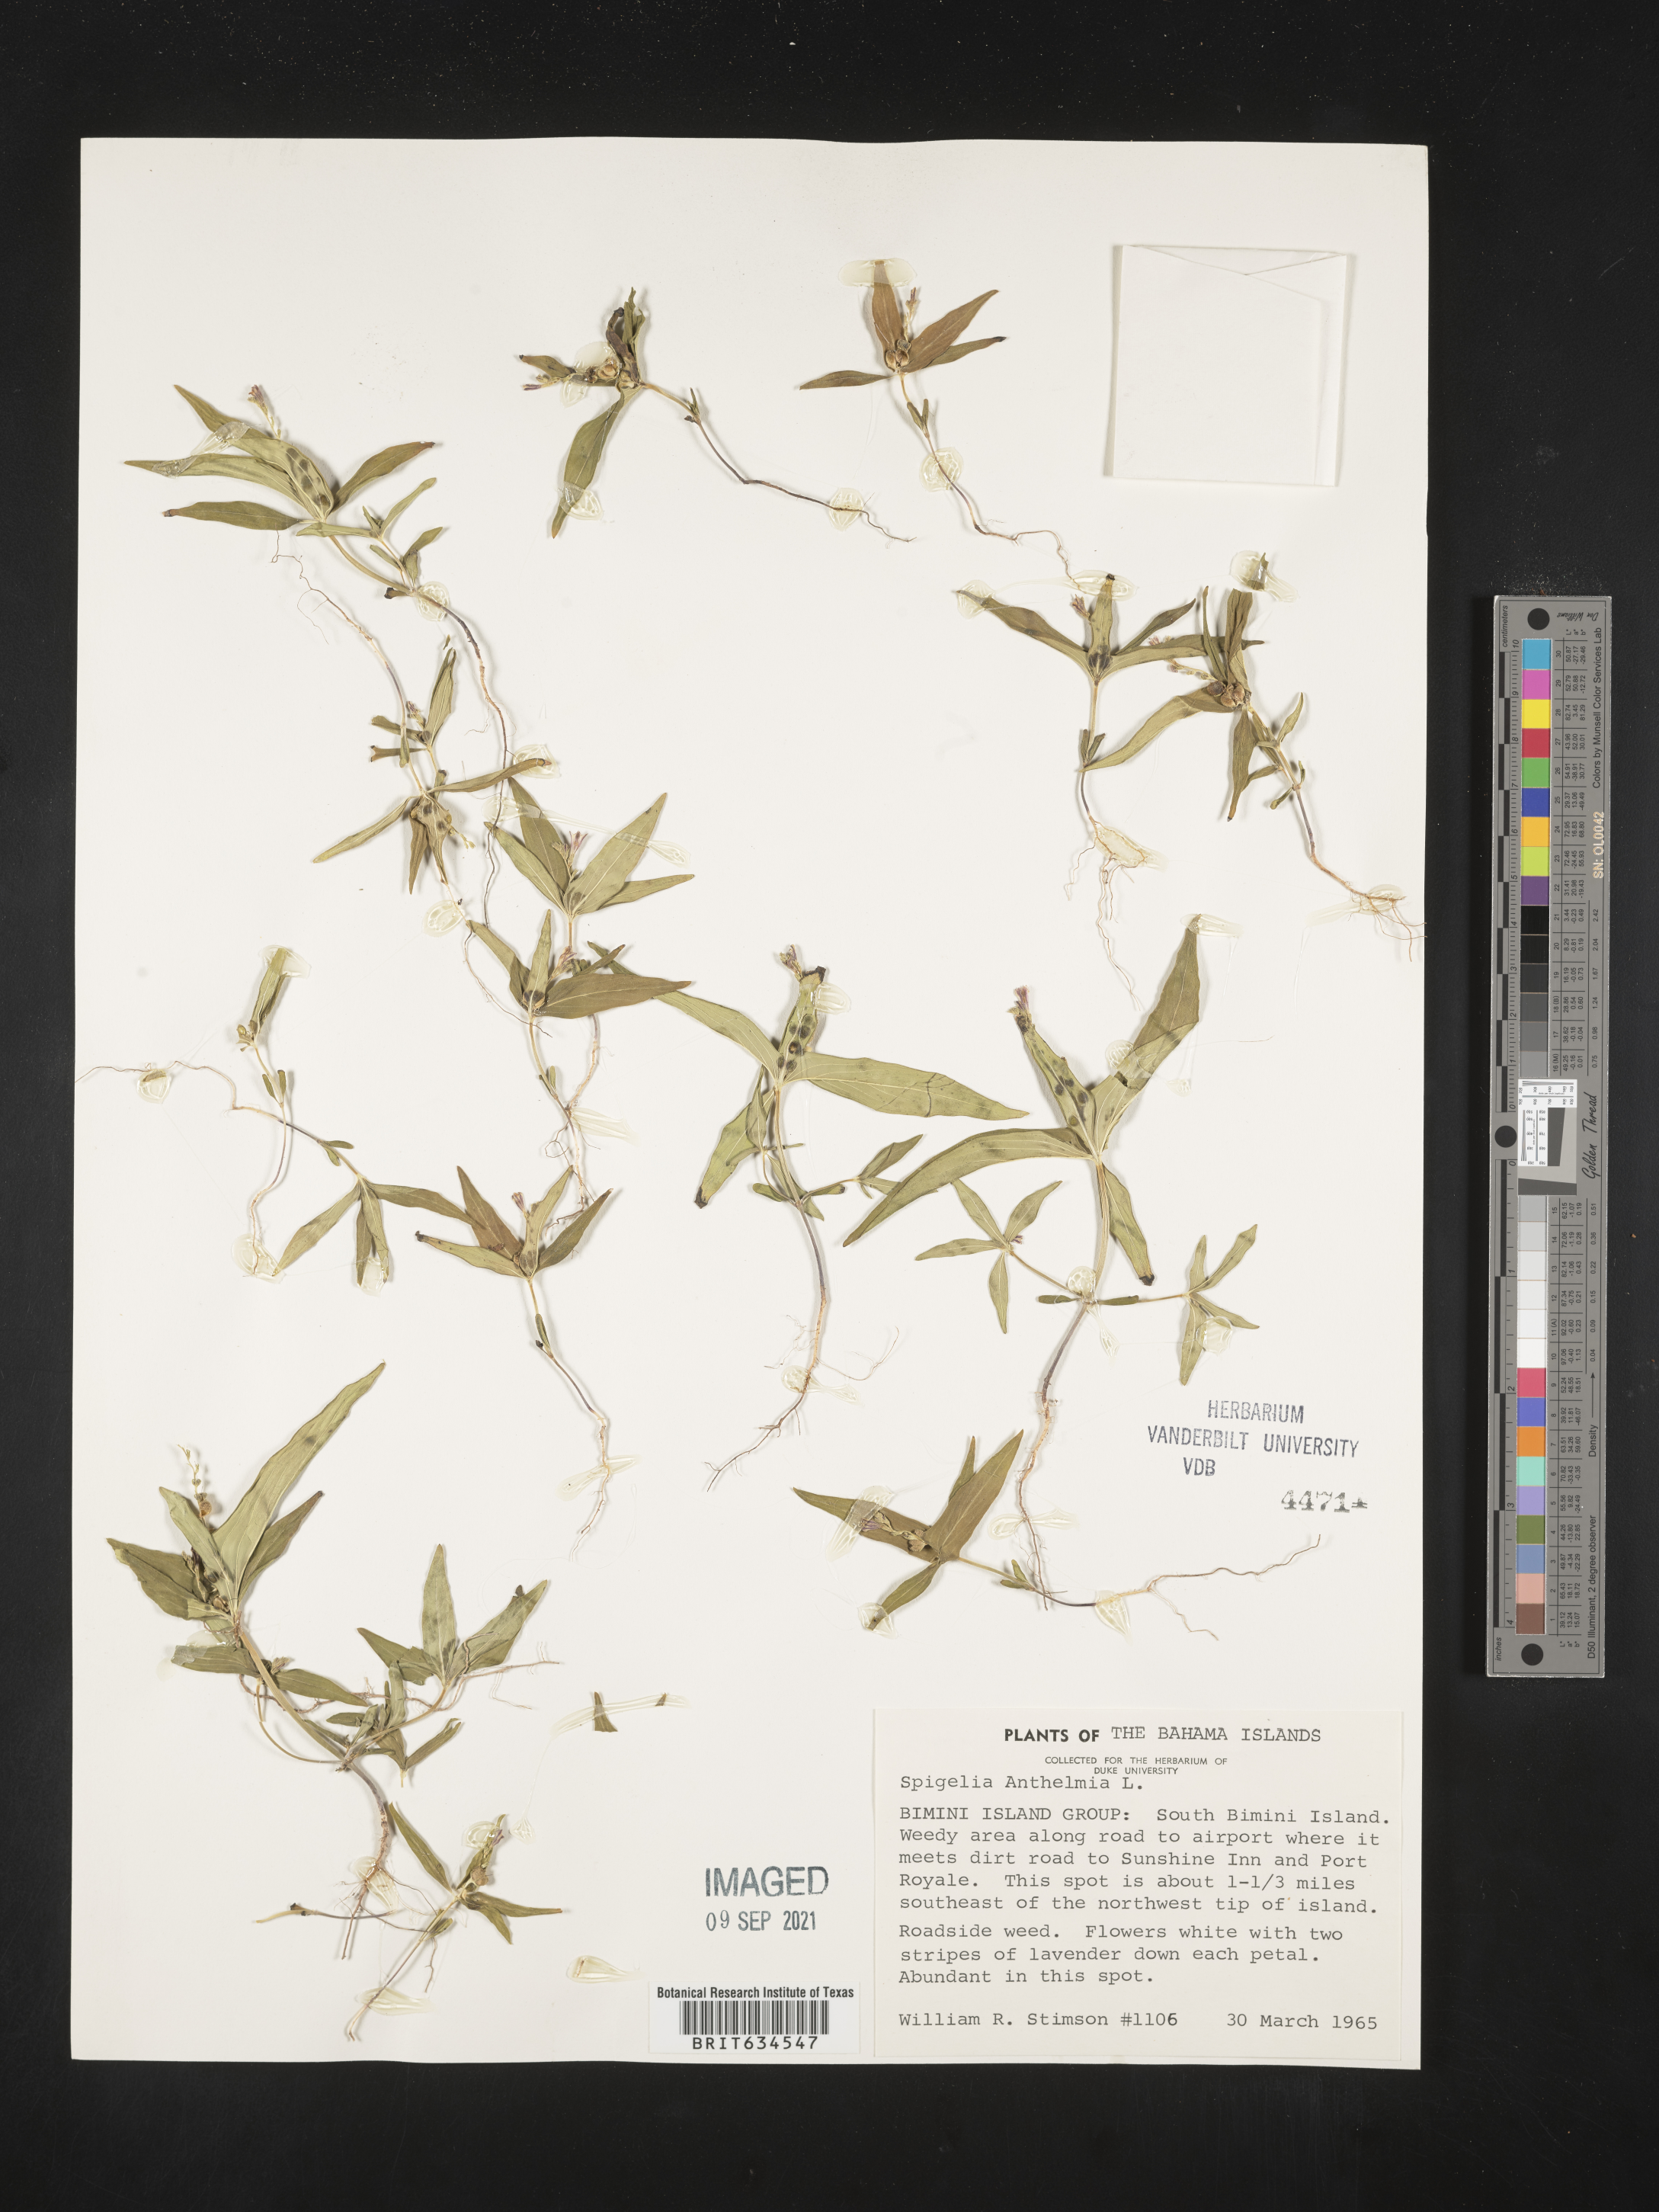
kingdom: Plantae
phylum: Tracheophyta
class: Magnoliopsida
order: Gentianales
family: Loganiaceae
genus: Spigelia
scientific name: Spigelia
